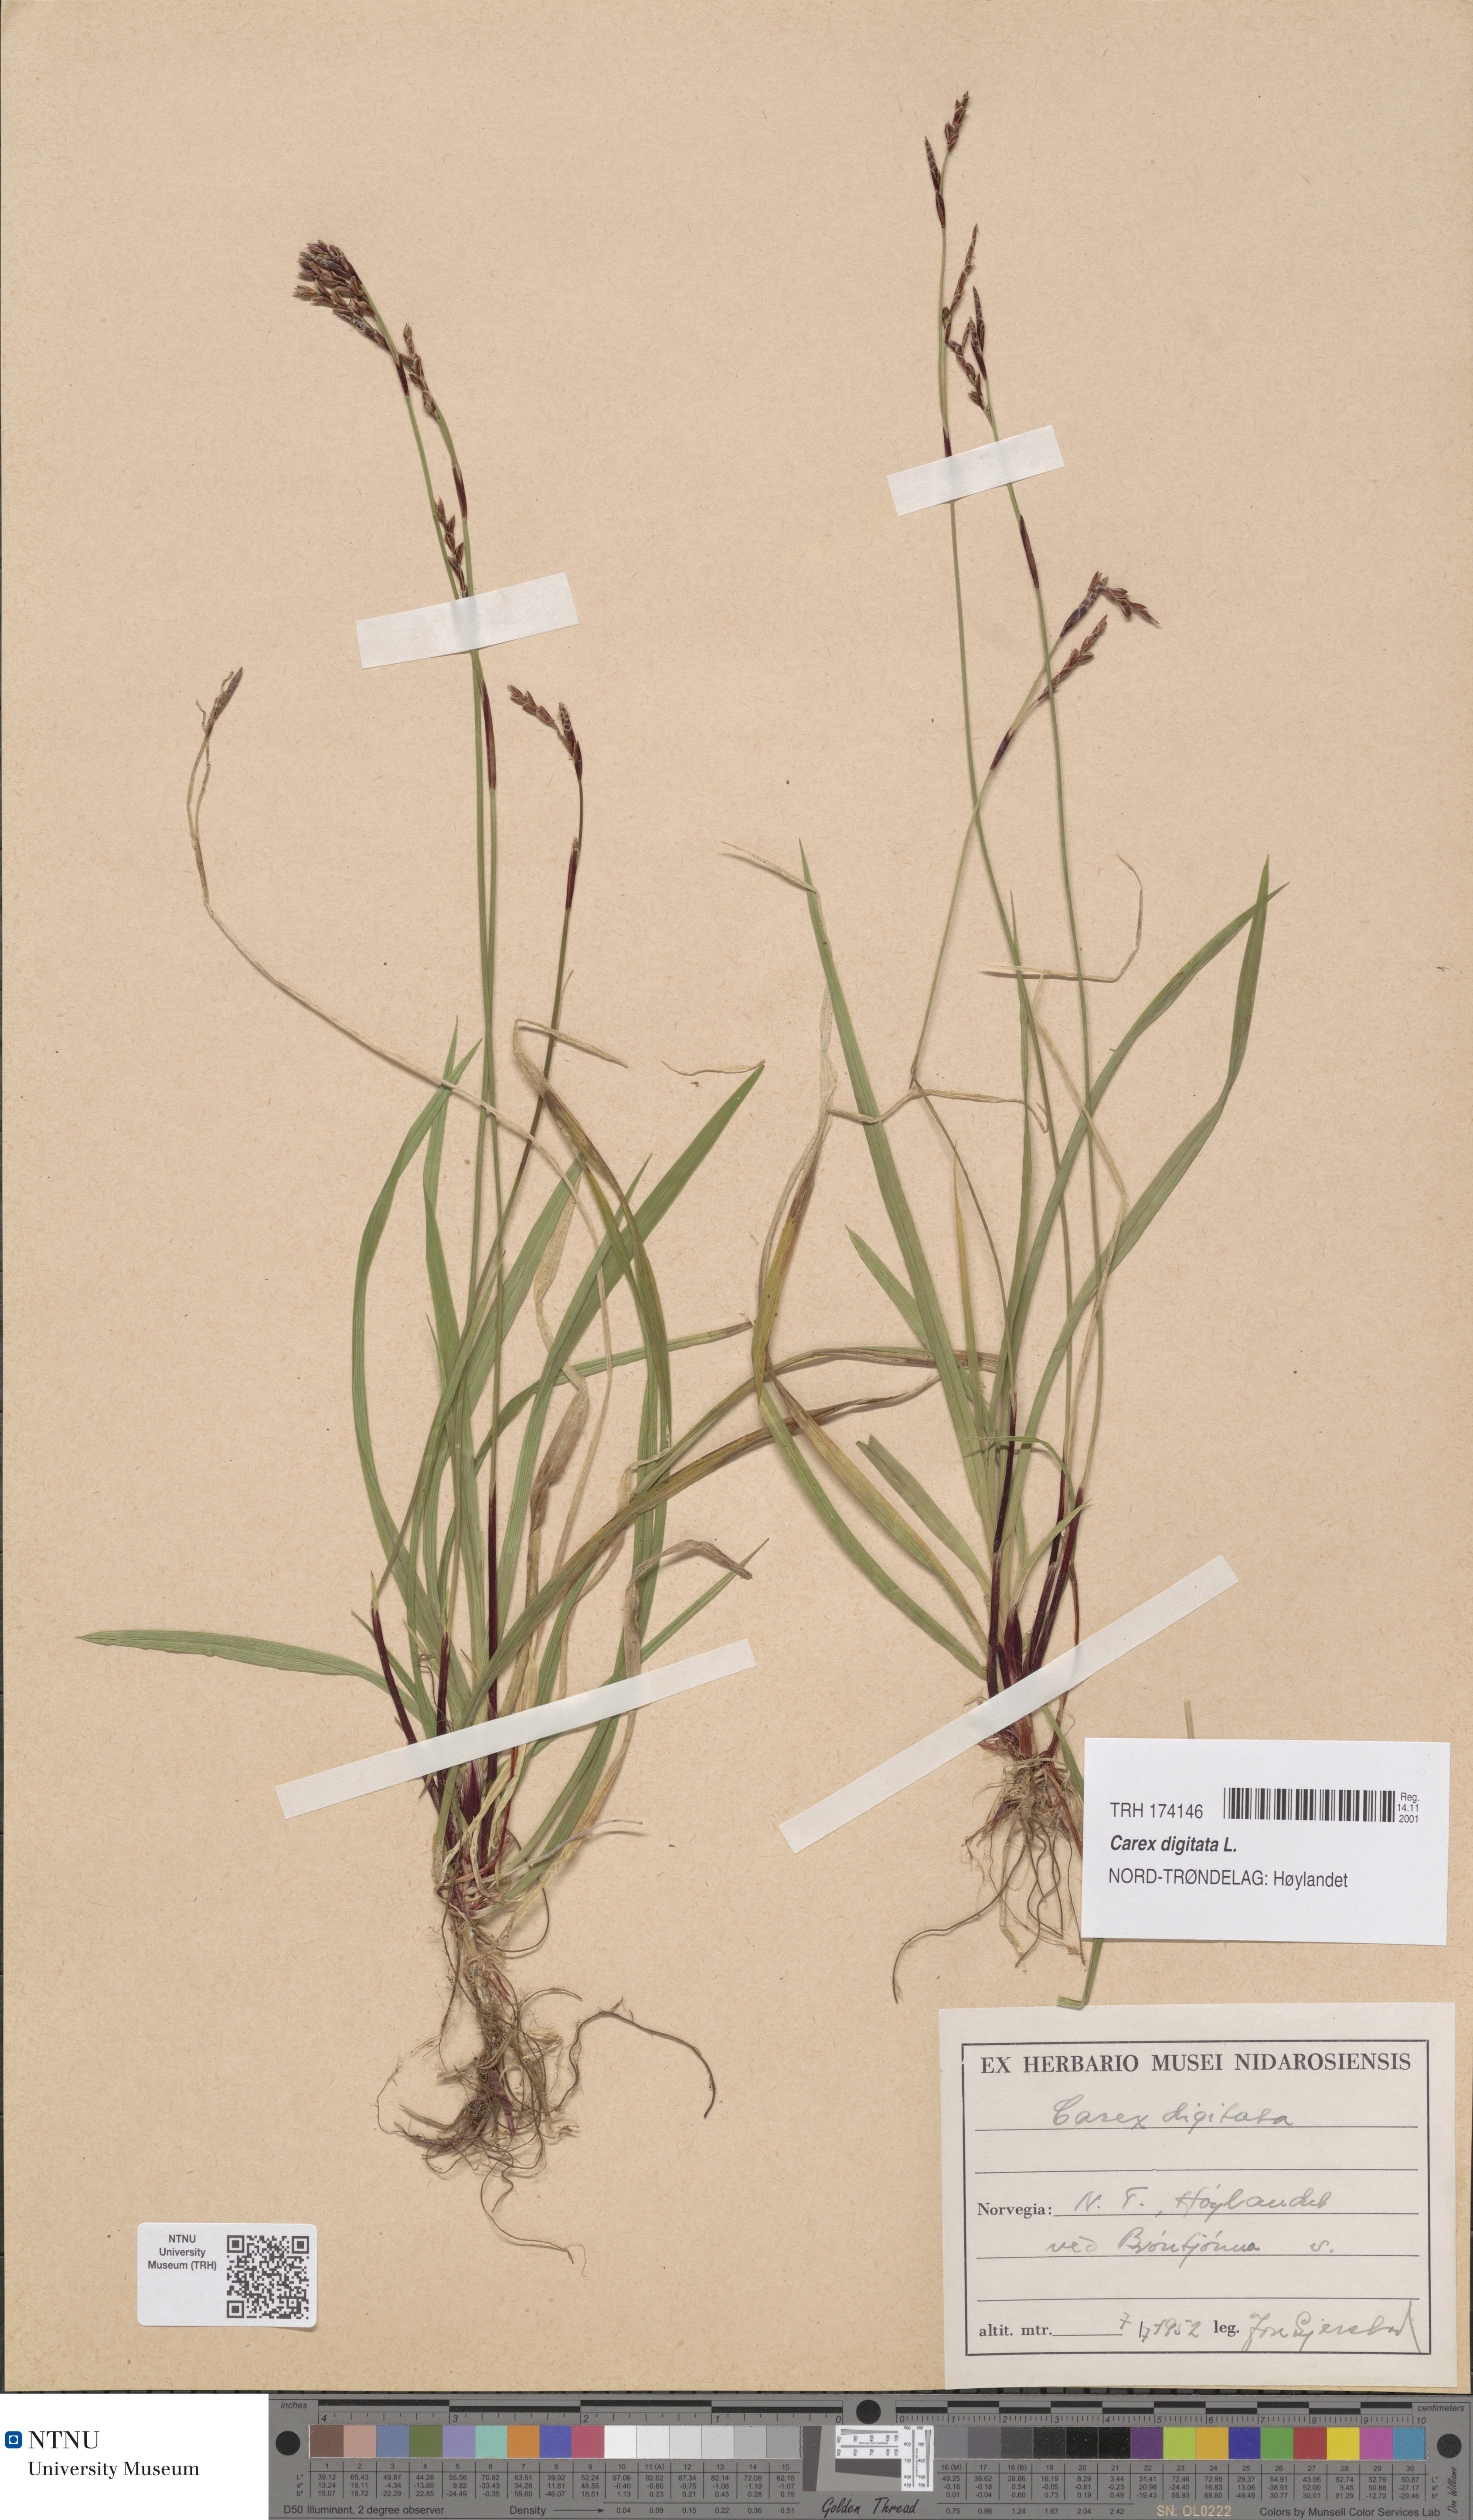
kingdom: Plantae
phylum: Tracheophyta
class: Liliopsida
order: Poales
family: Cyperaceae
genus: Carex
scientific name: Carex digitata
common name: Fingered sedge
